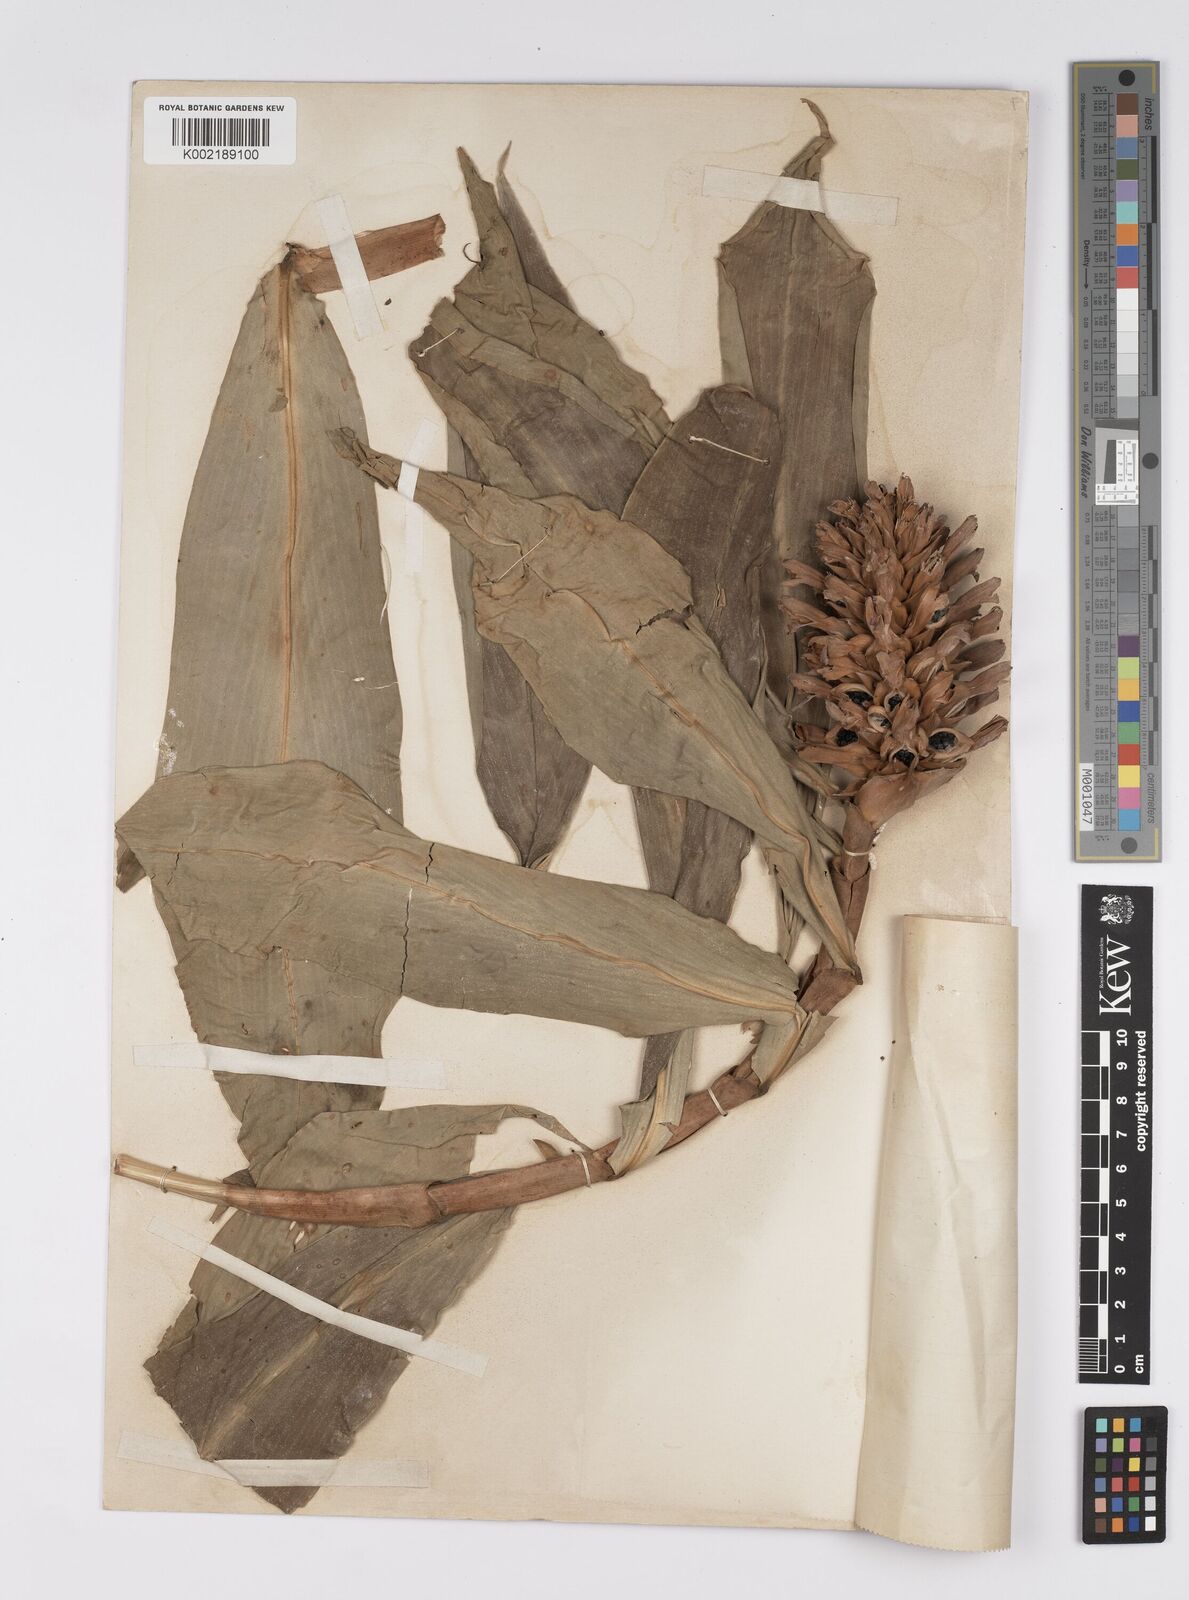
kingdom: Plantae
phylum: Tracheophyta
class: Liliopsida
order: Zingiberales
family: Costaceae
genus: Hellenia
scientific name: Hellenia speciosa
